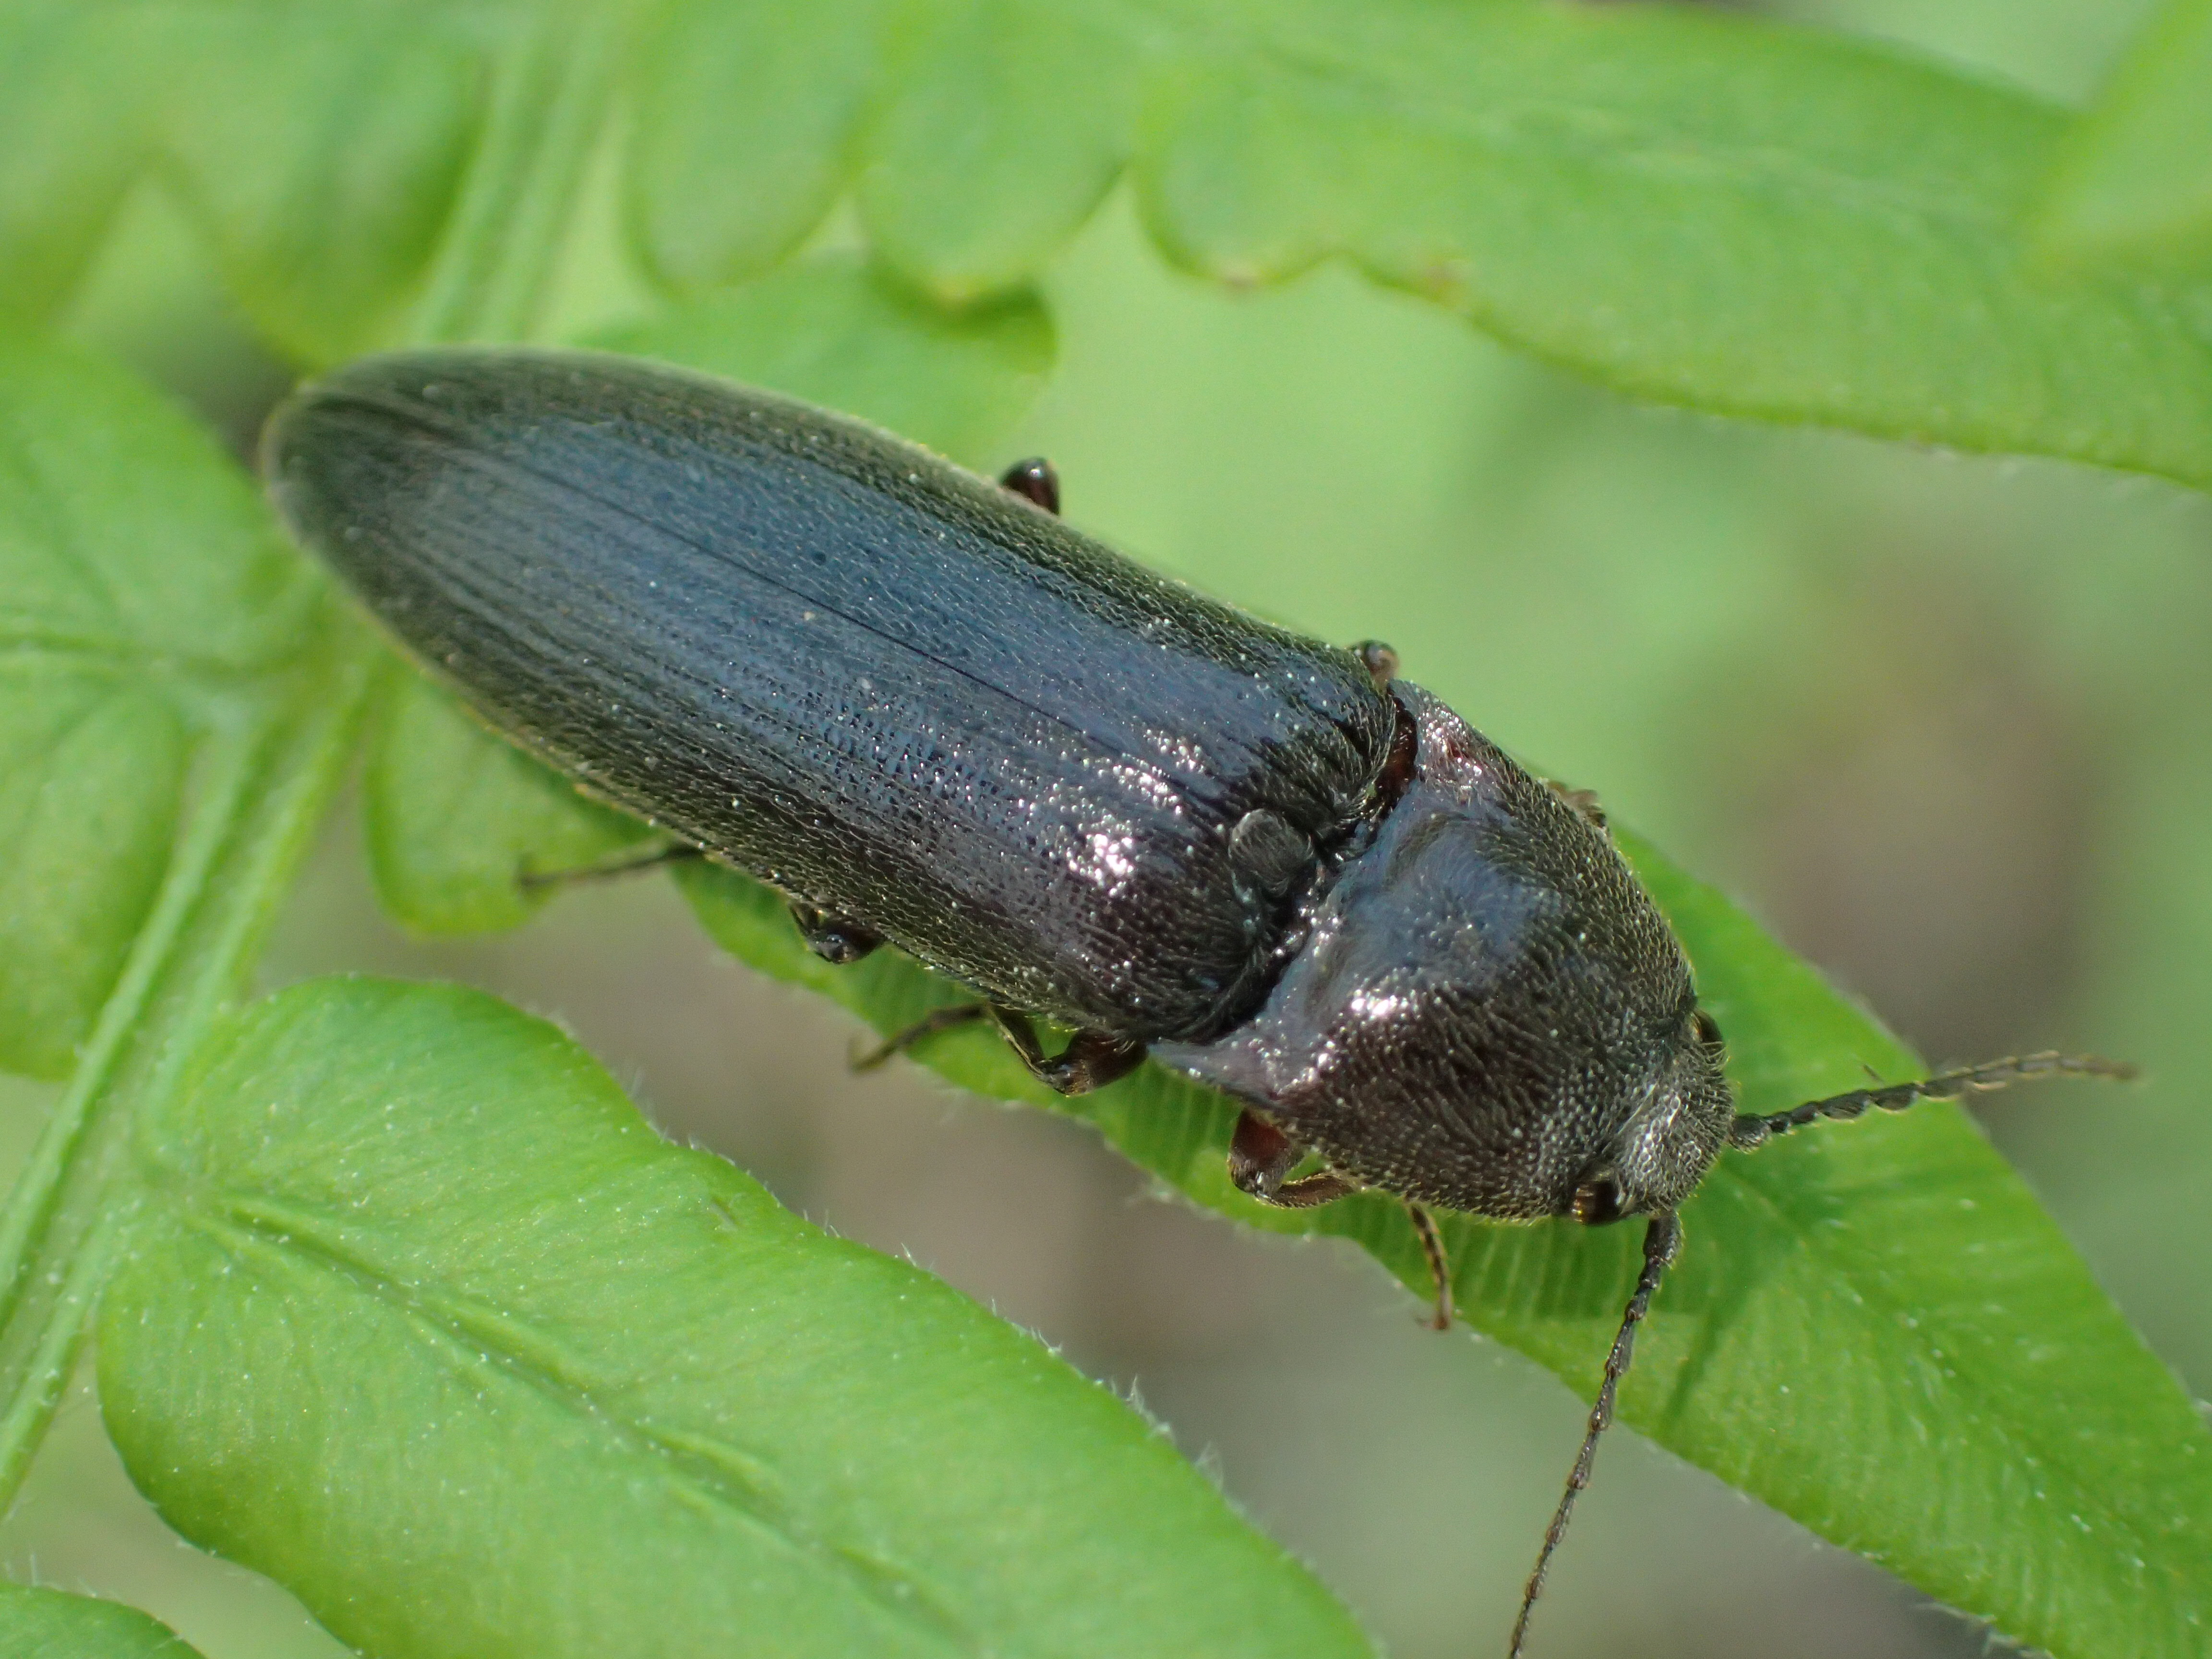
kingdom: Animalia
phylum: Arthropoda
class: Insecta
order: Coleoptera
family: Elateridae
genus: Melanotus
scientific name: Melanotus castanipes
